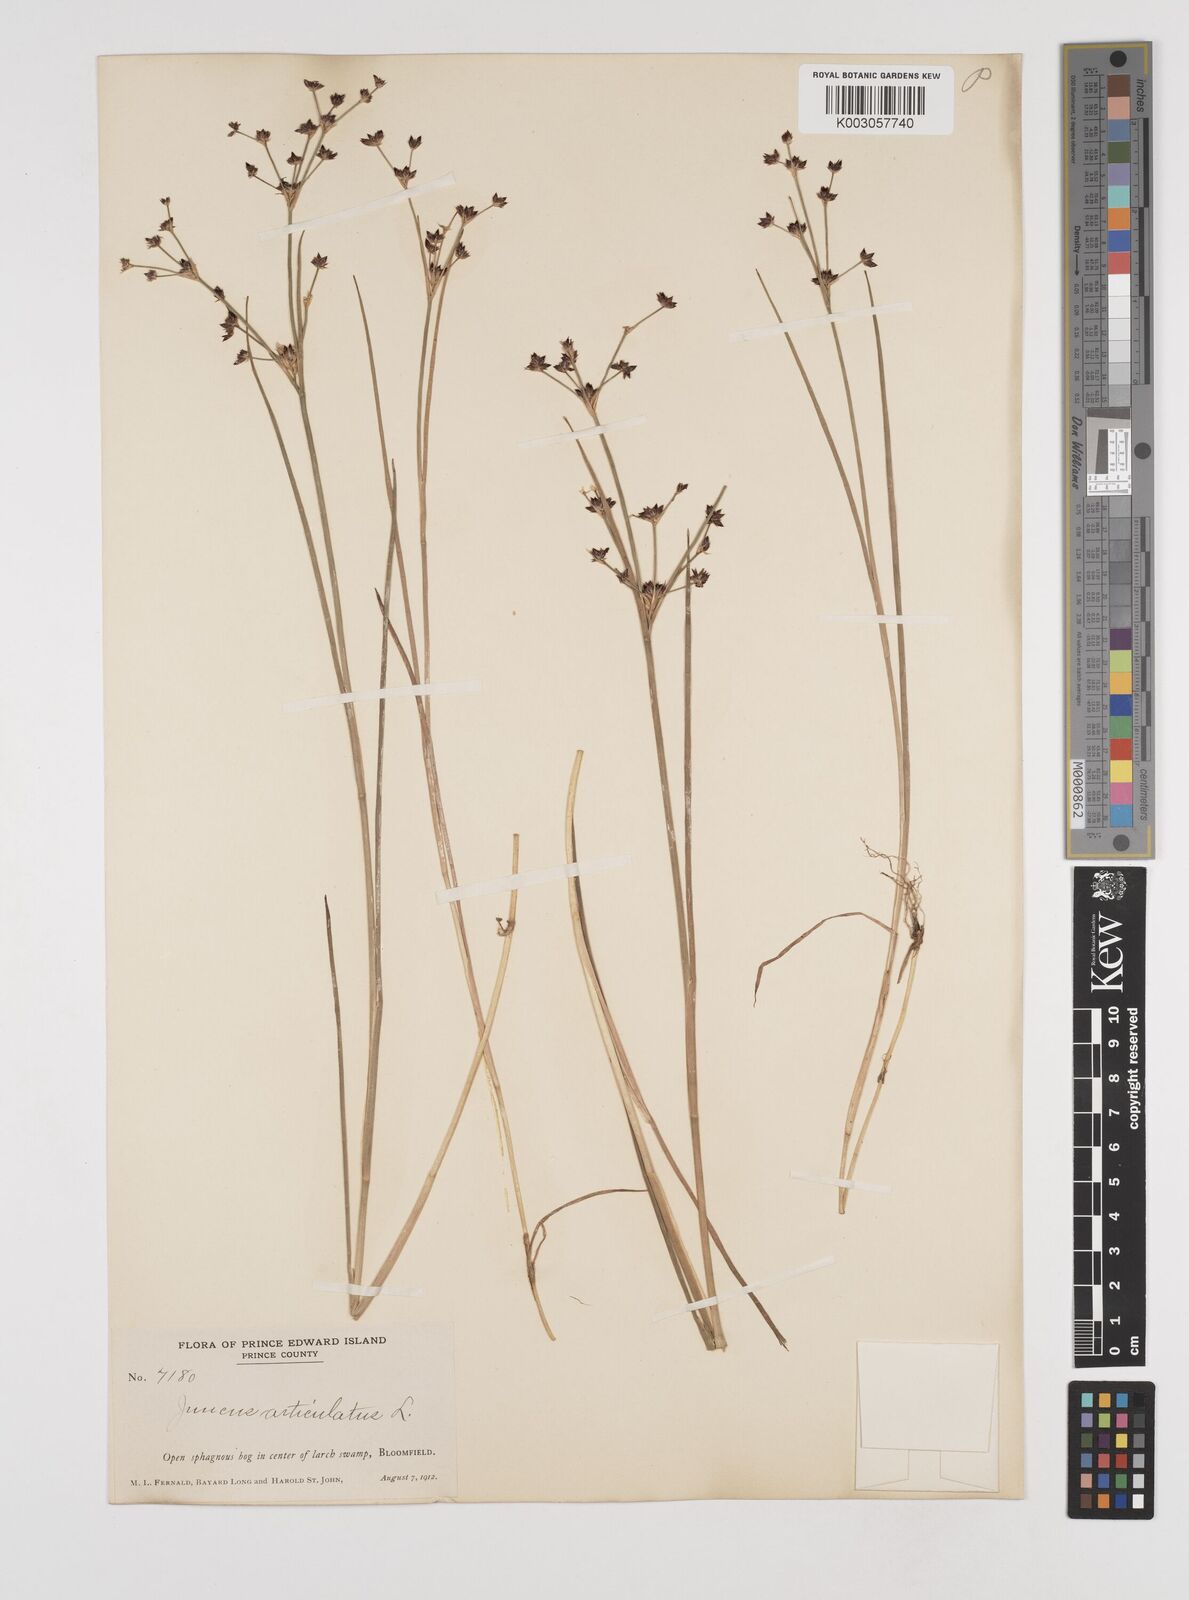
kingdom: Plantae
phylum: Tracheophyta
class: Liliopsida
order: Poales
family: Juncaceae
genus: Juncus
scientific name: Juncus articulatus
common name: Jointed rush
